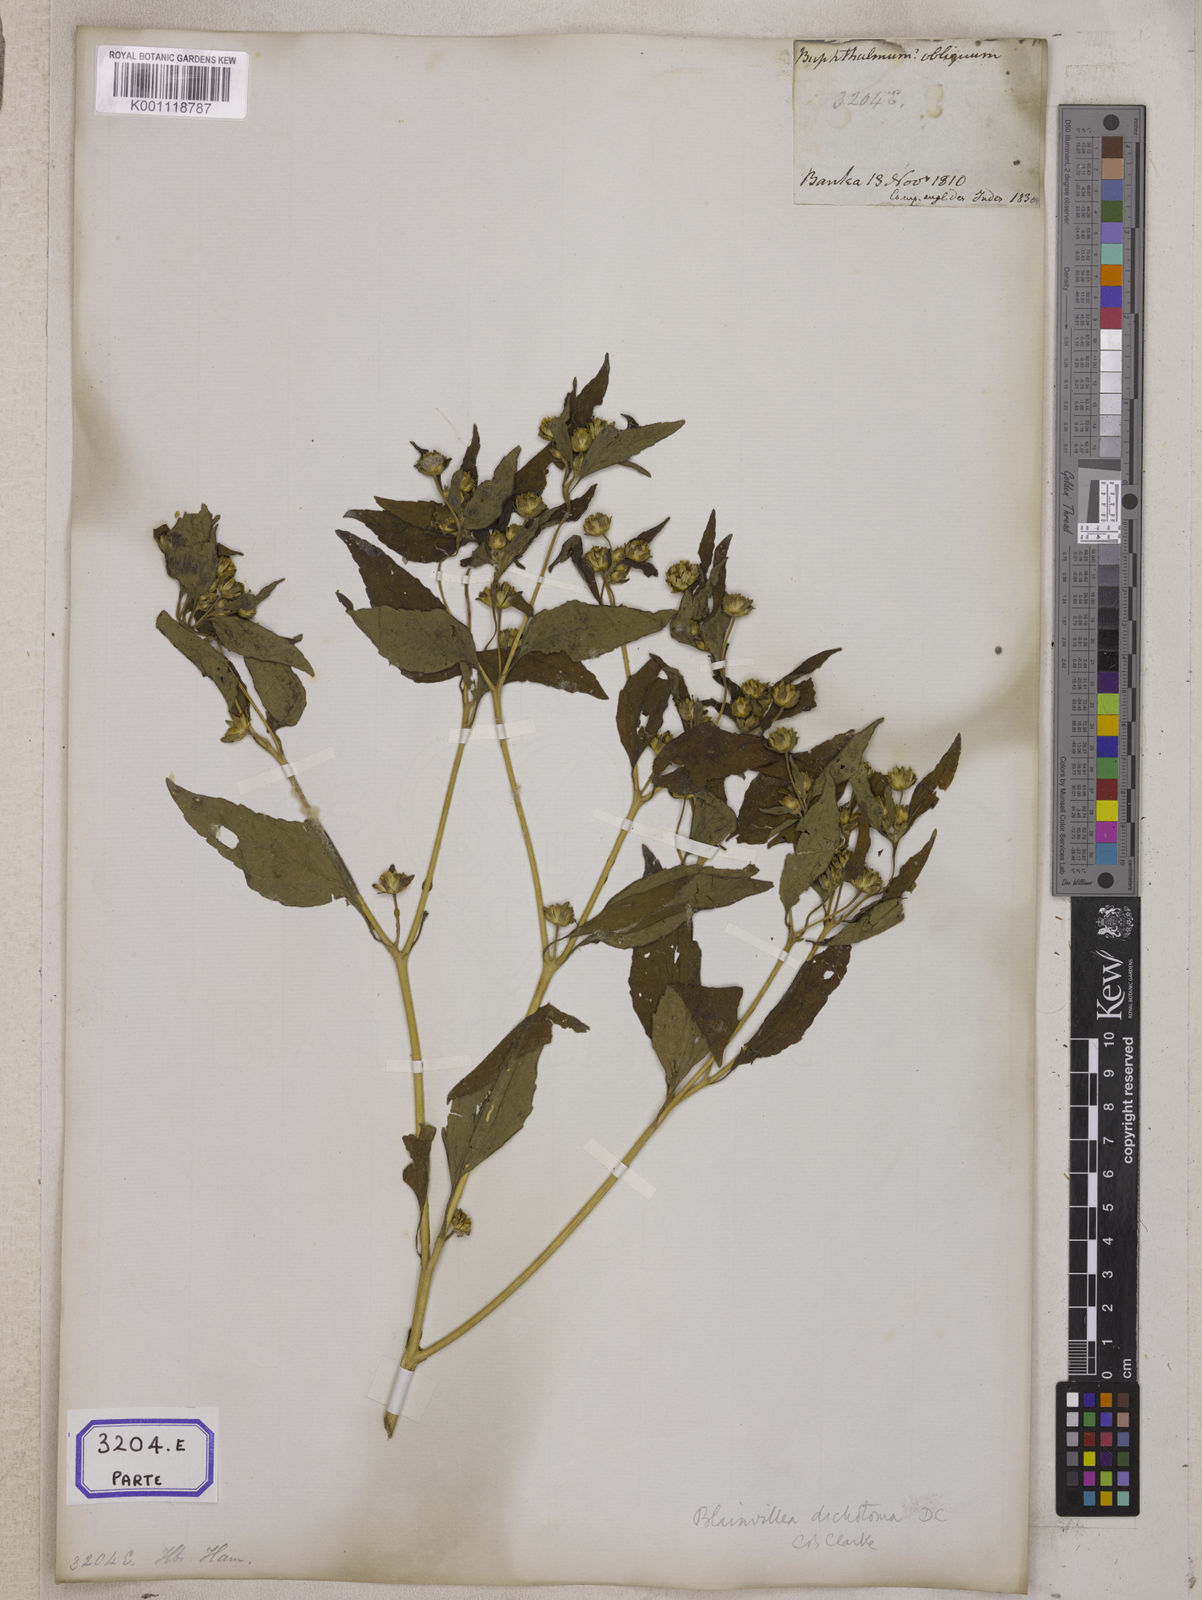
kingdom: Plantae
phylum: Tracheophyta
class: Magnoliopsida
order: Asterales
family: Asteraceae
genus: Blainvillea
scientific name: Blainvillea acmella
